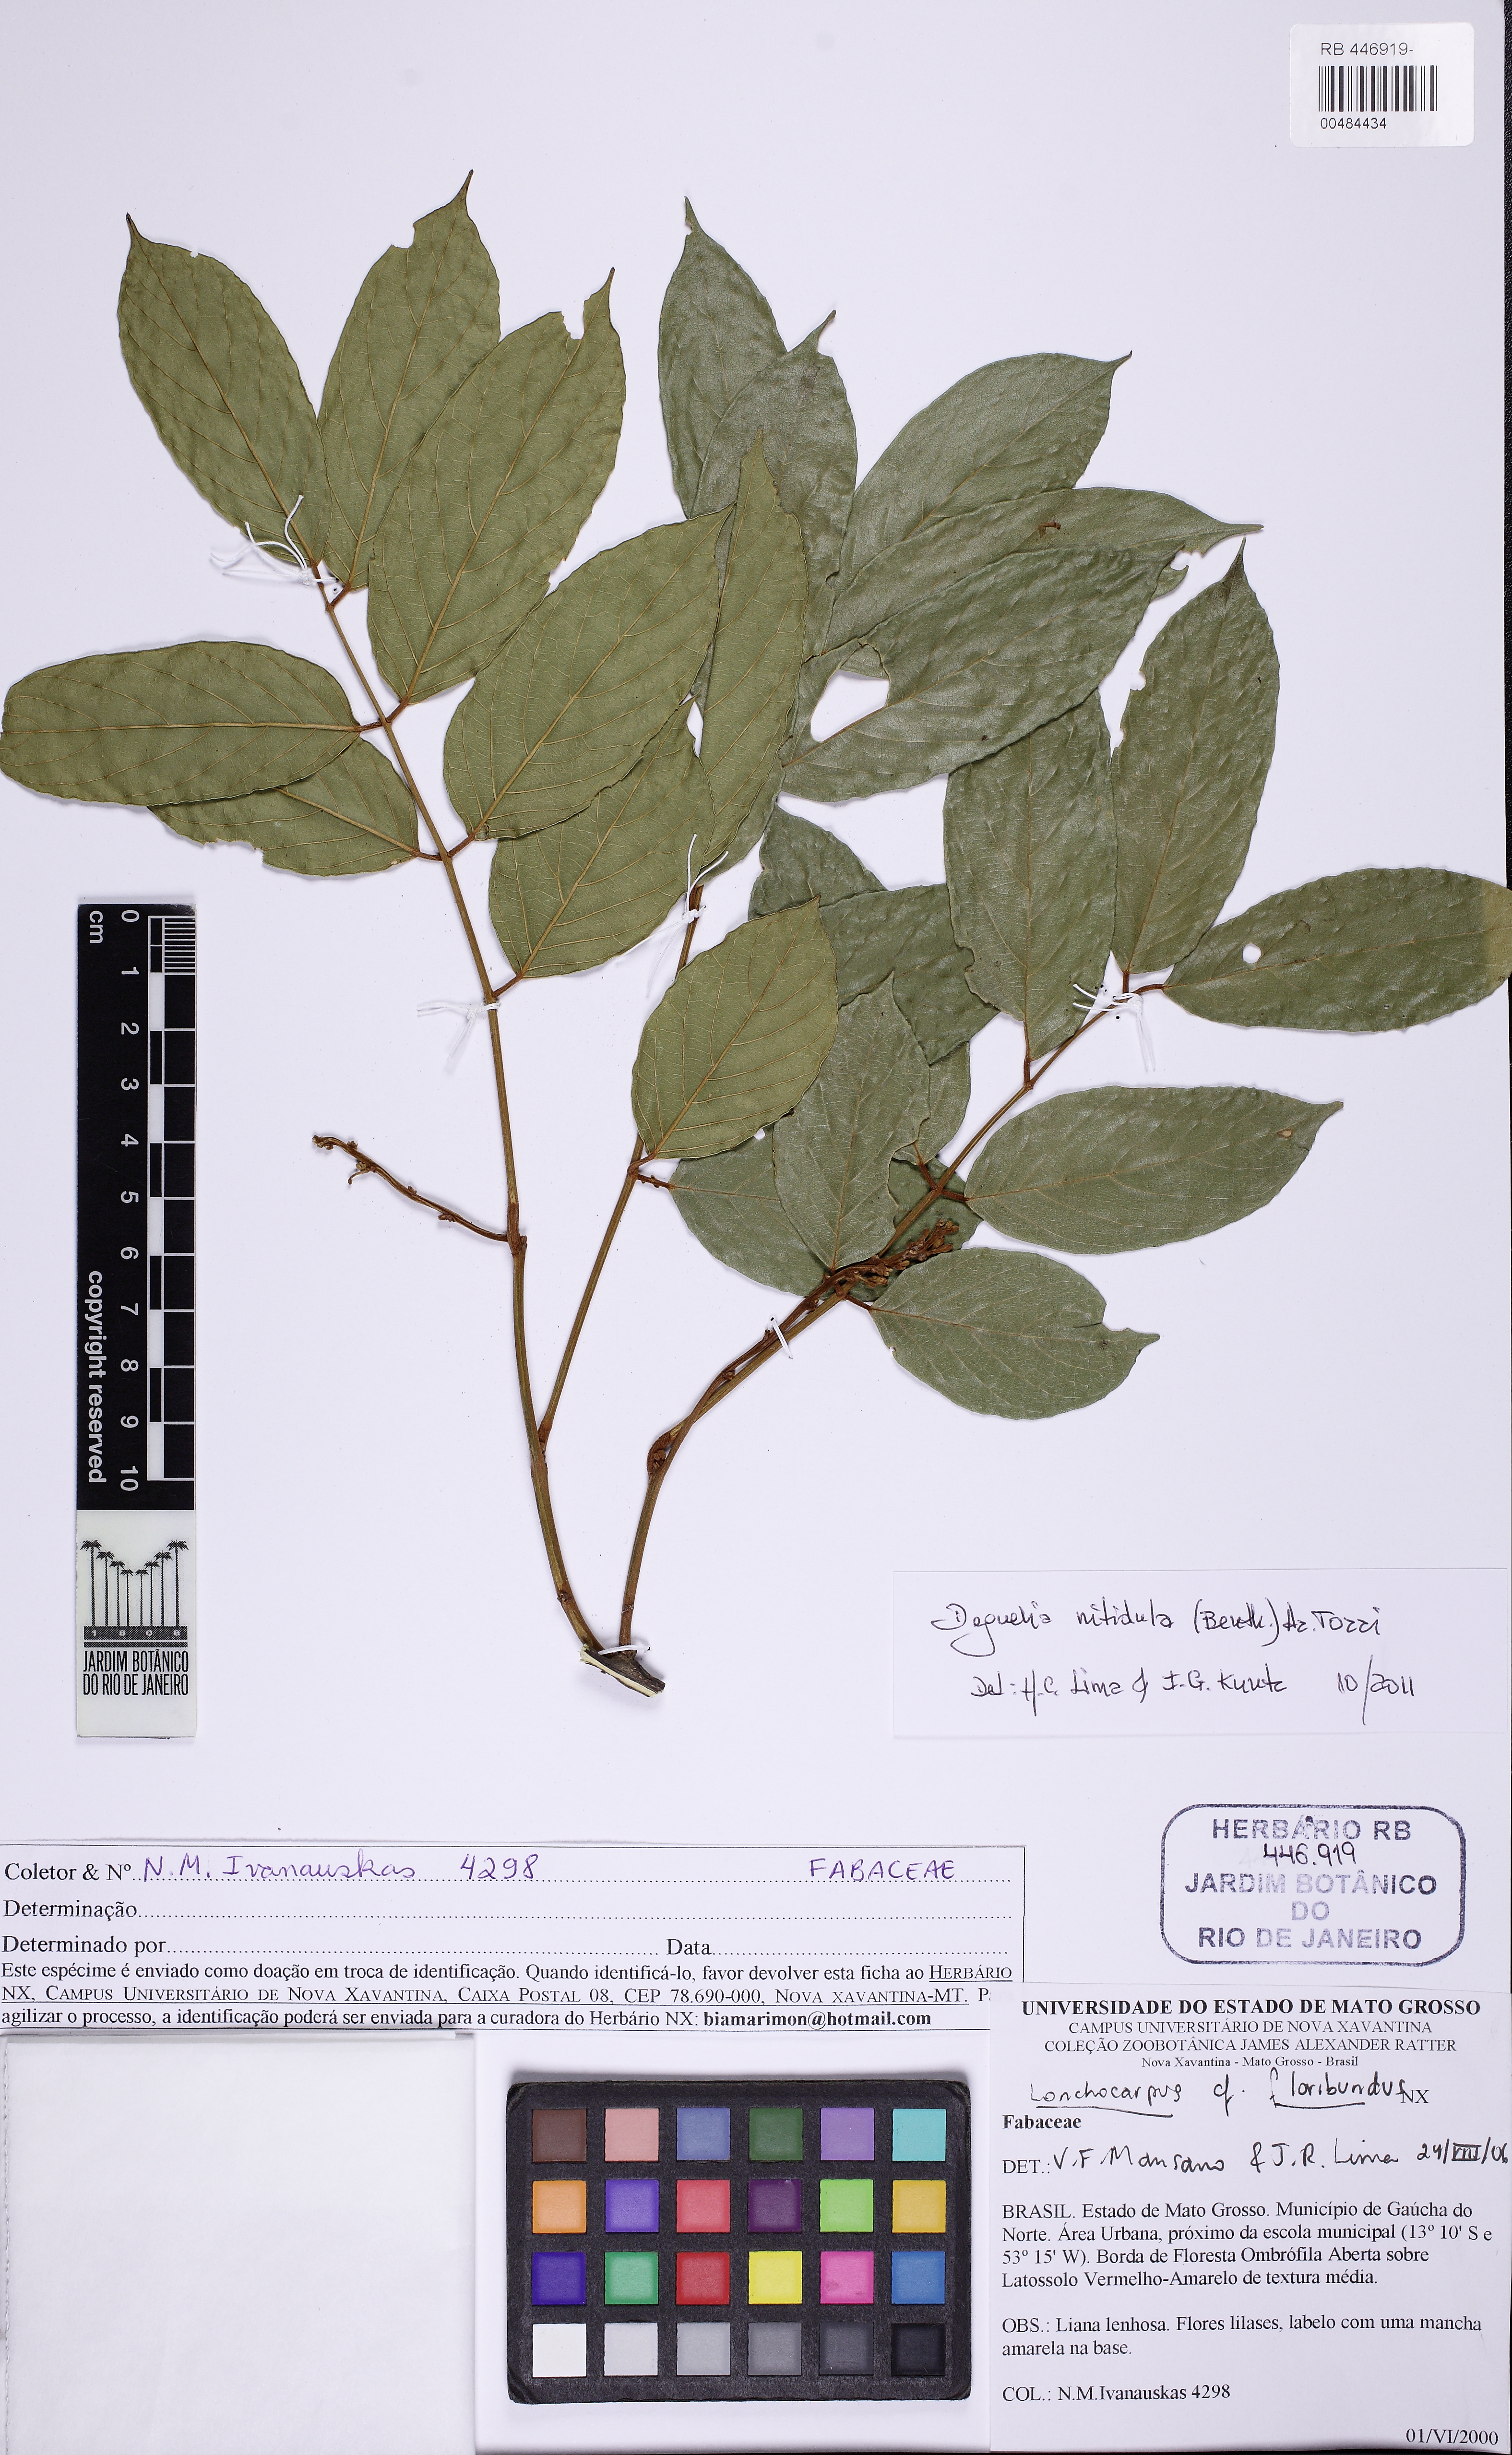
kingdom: Plantae
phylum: Tracheophyta
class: Magnoliopsida
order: Fabales
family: Fabaceae
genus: Deguelia
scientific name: Deguelia amazonica
